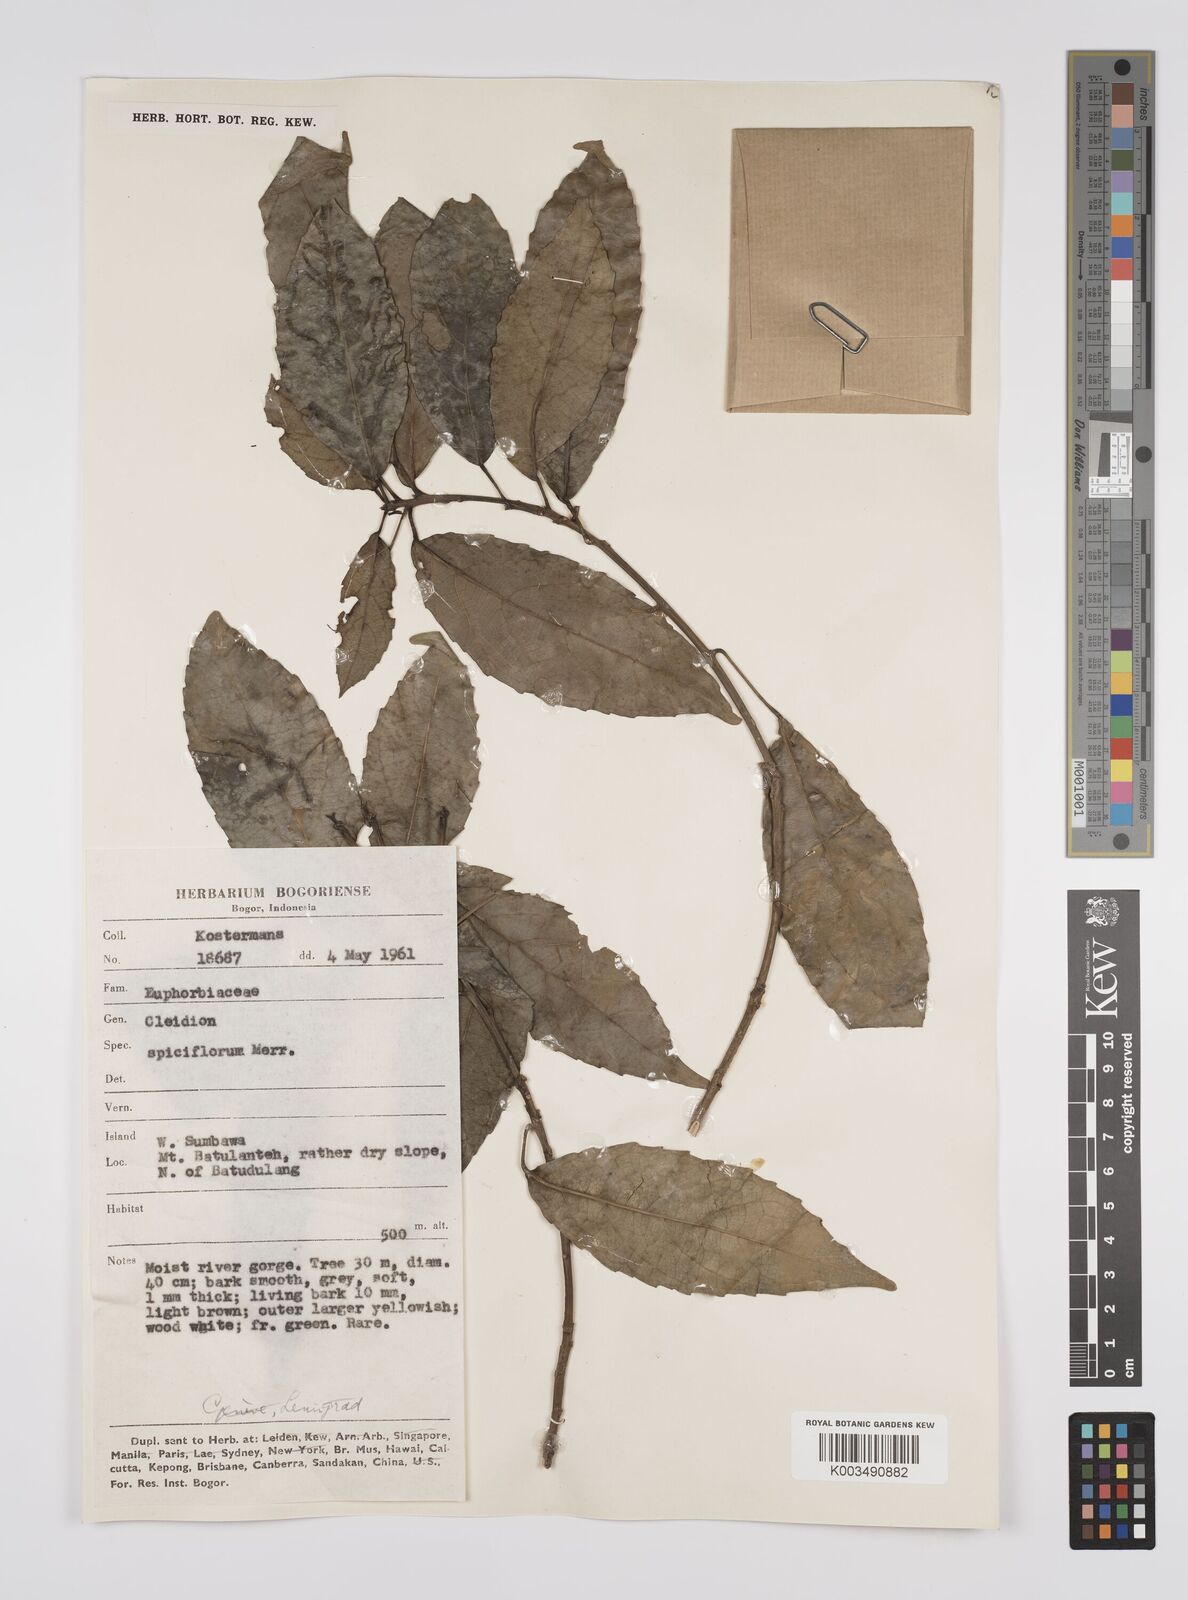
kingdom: Plantae
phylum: Tracheophyta
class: Magnoliopsida
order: Malpighiales
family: Euphorbiaceae
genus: Acalypha
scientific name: Acalypha spiciflora
